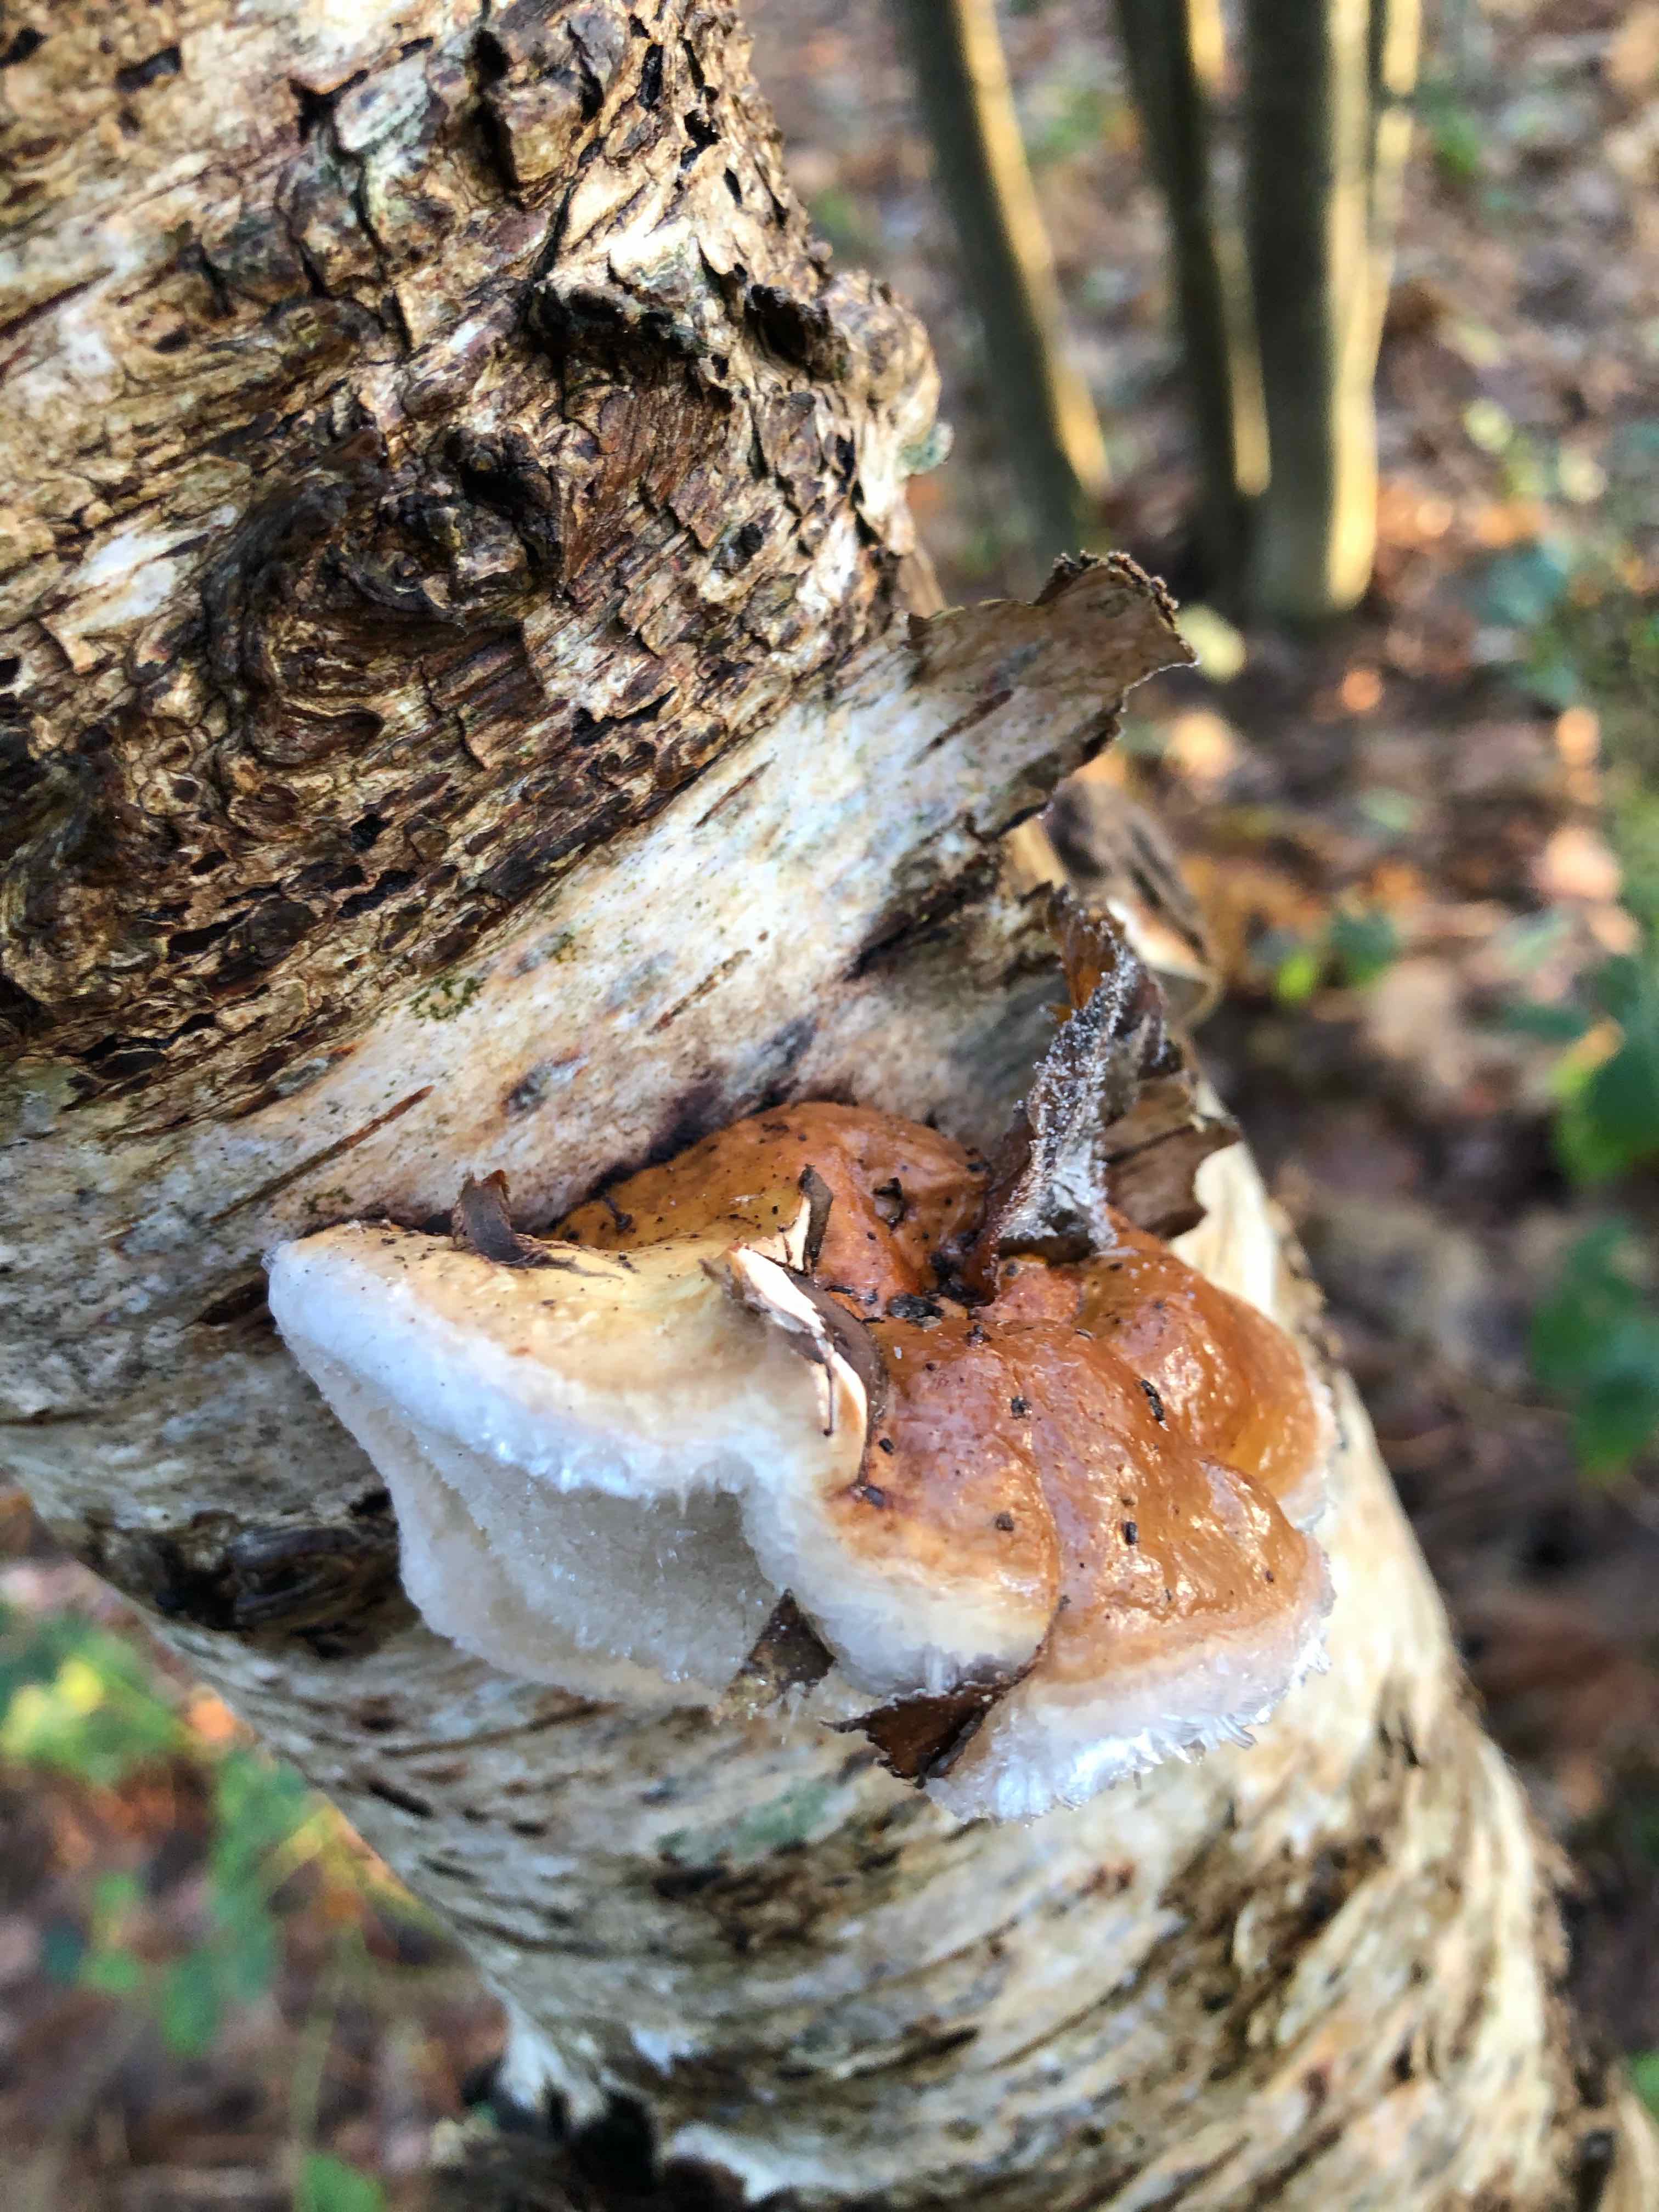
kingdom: Fungi
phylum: Basidiomycota
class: Agaricomycetes
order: Polyporales
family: Fomitopsidaceae
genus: Fomitopsis
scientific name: Fomitopsis pinicola
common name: randbæltet hovporesvamp
